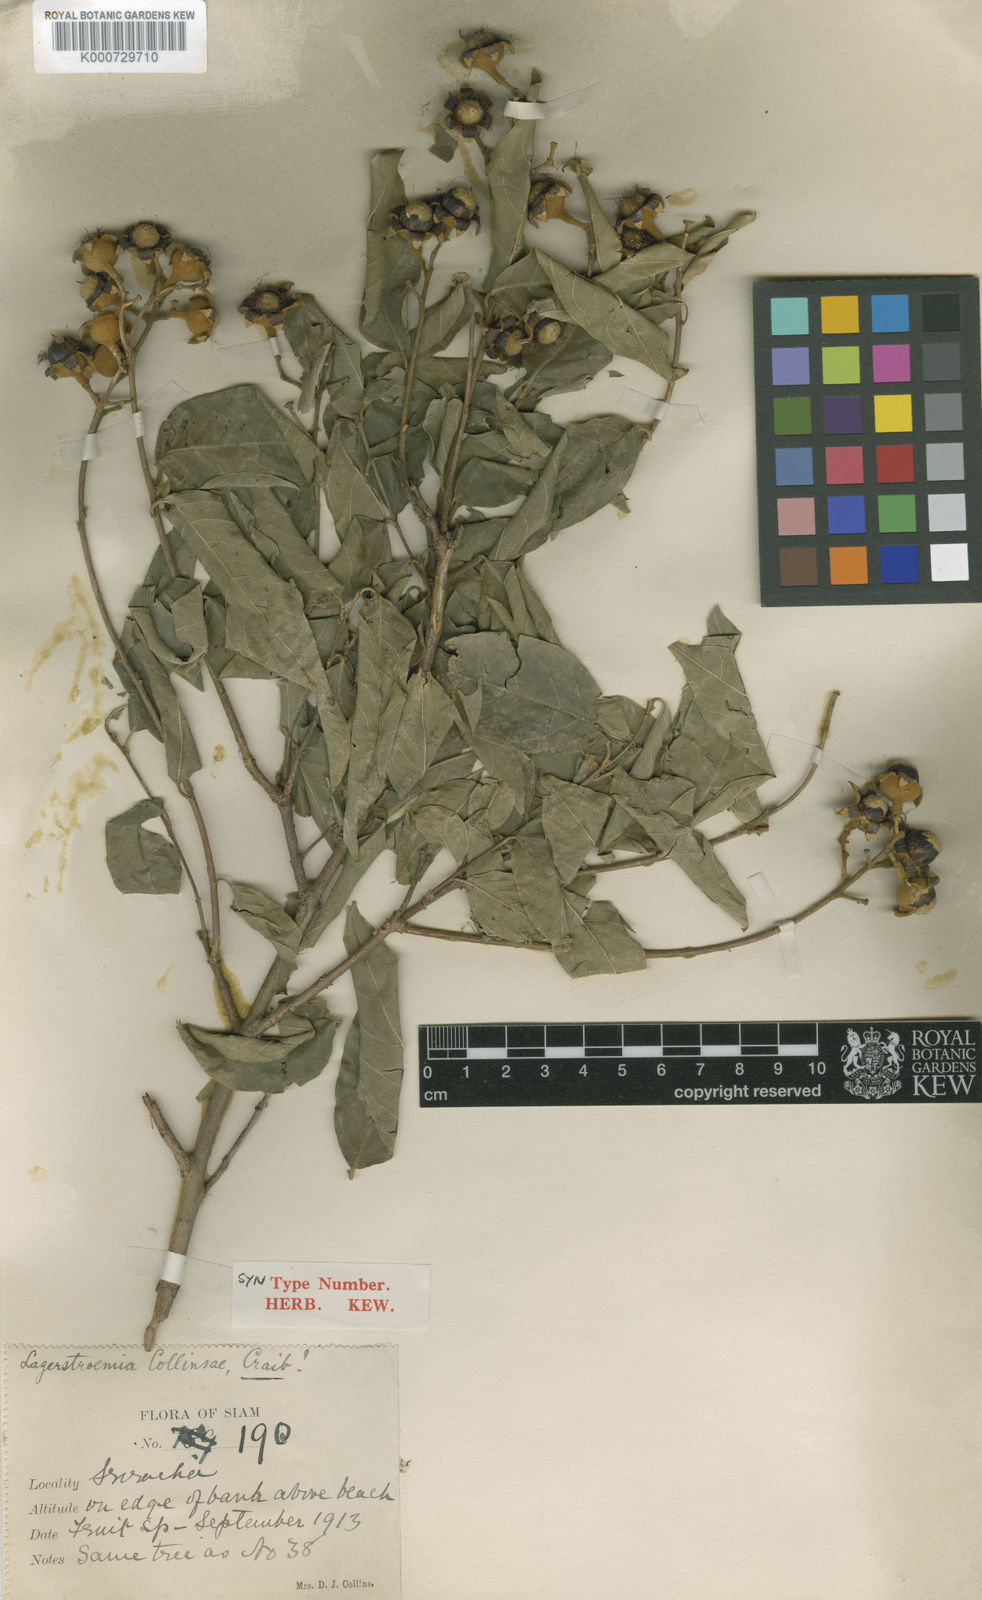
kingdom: Plantae
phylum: Tracheophyta
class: Magnoliopsida
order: Myrtales
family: Lythraceae
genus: Lagerstroemia
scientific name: Lagerstroemia cochinchinensis
